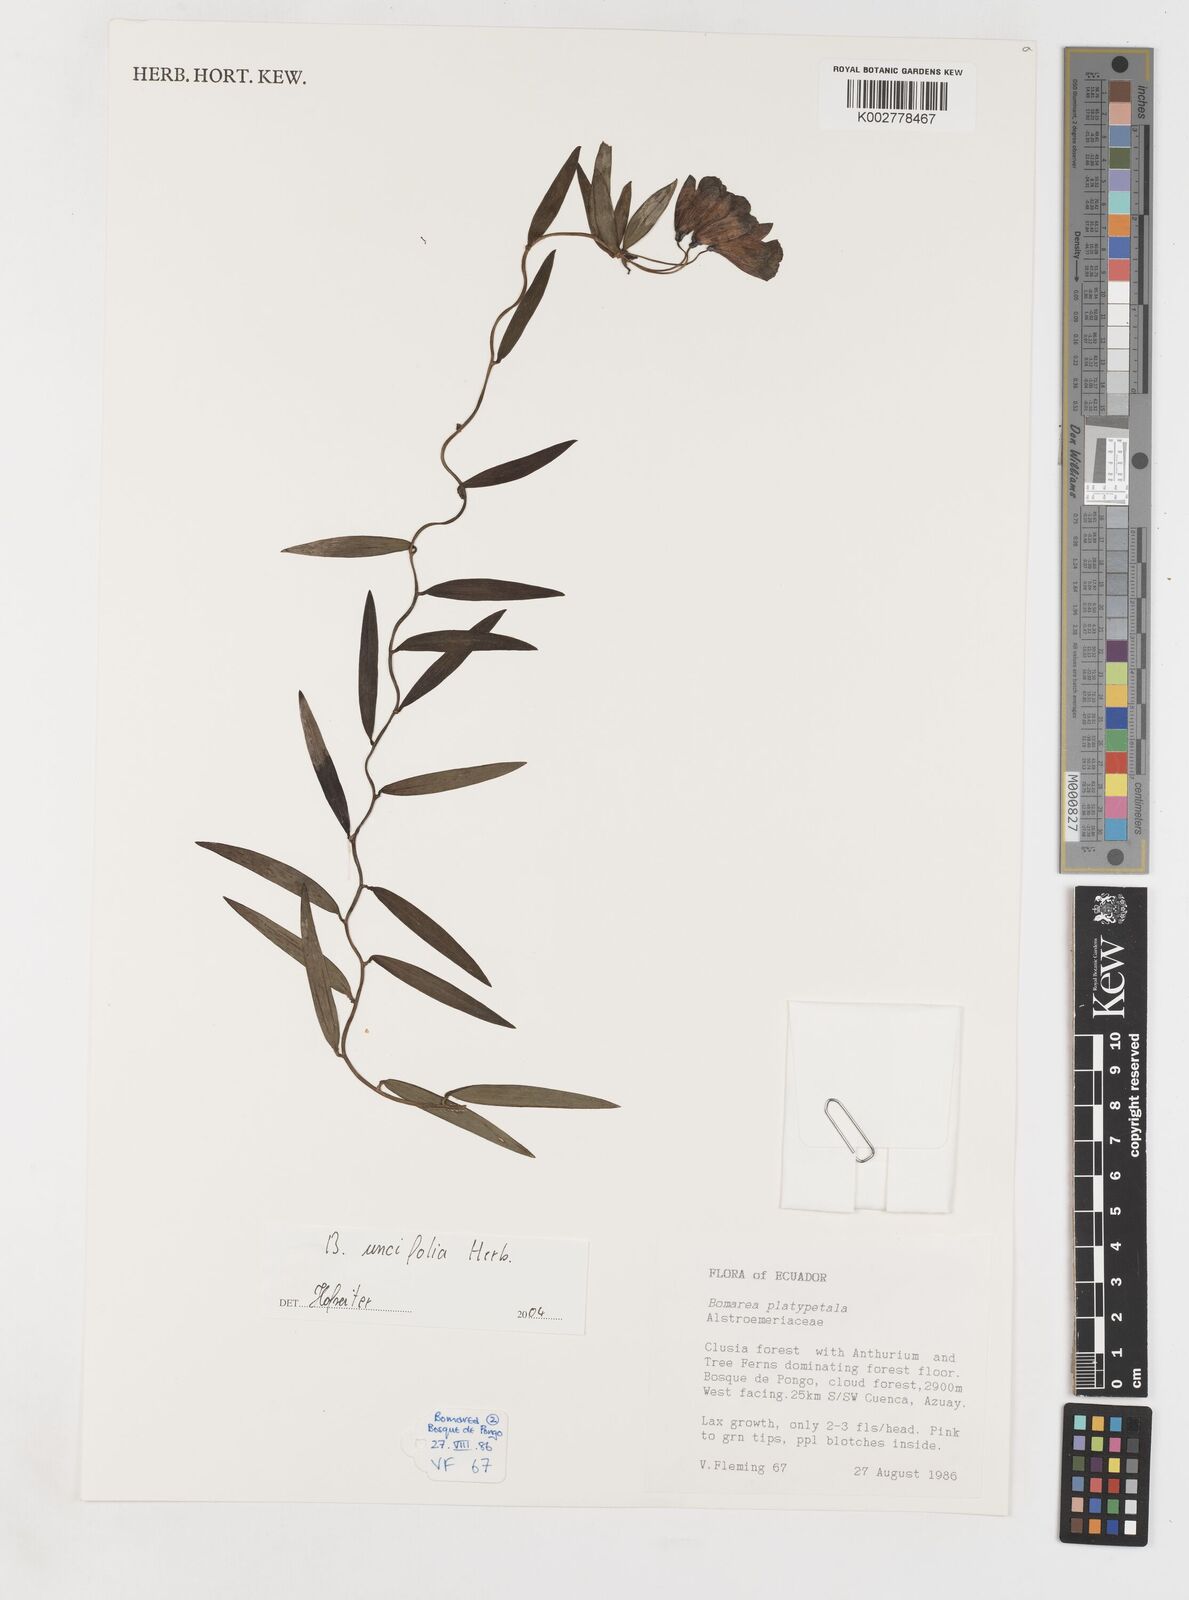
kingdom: Plantae
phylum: Tracheophyta
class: Liliopsida
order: Liliales
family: Alstroemeriaceae
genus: Bomarea
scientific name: Bomarea uncifolia
